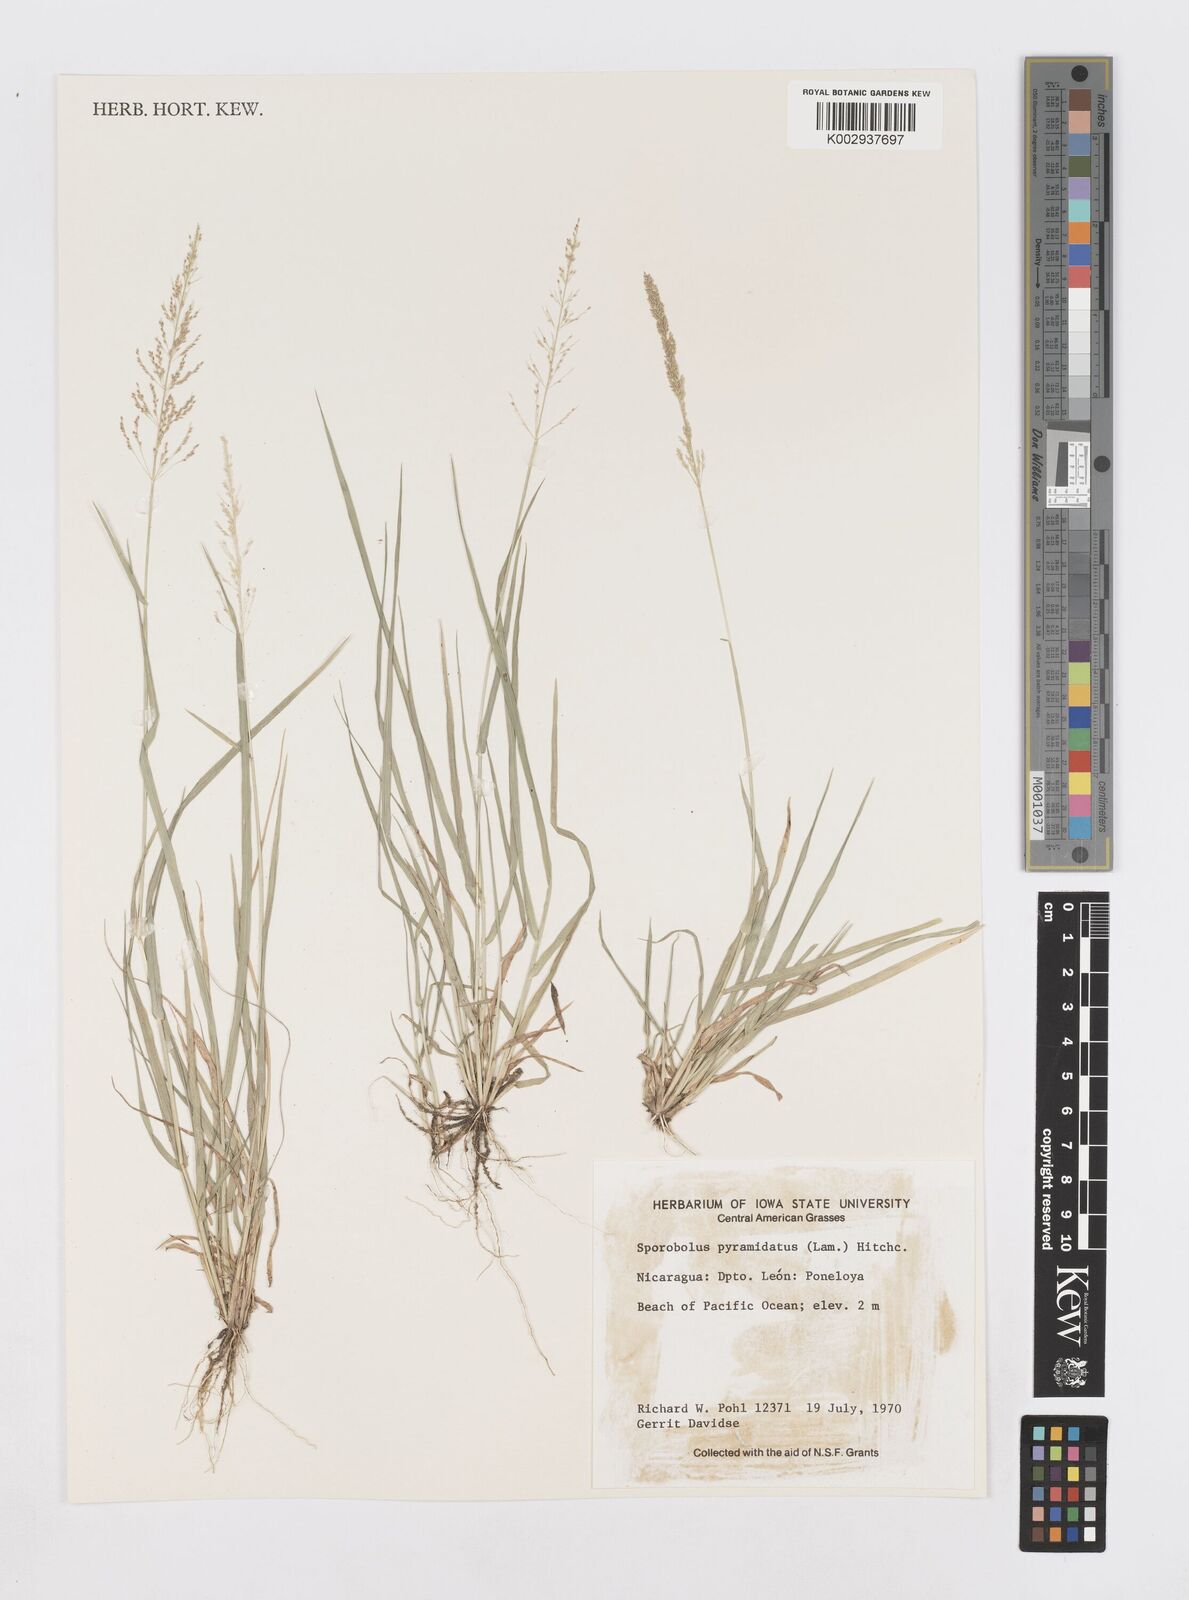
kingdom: Plantae
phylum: Tracheophyta
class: Liliopsida
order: Poales
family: Poaceae
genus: Sporobolus
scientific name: Sporobolus pyramidatus
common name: Whorled dropseed
